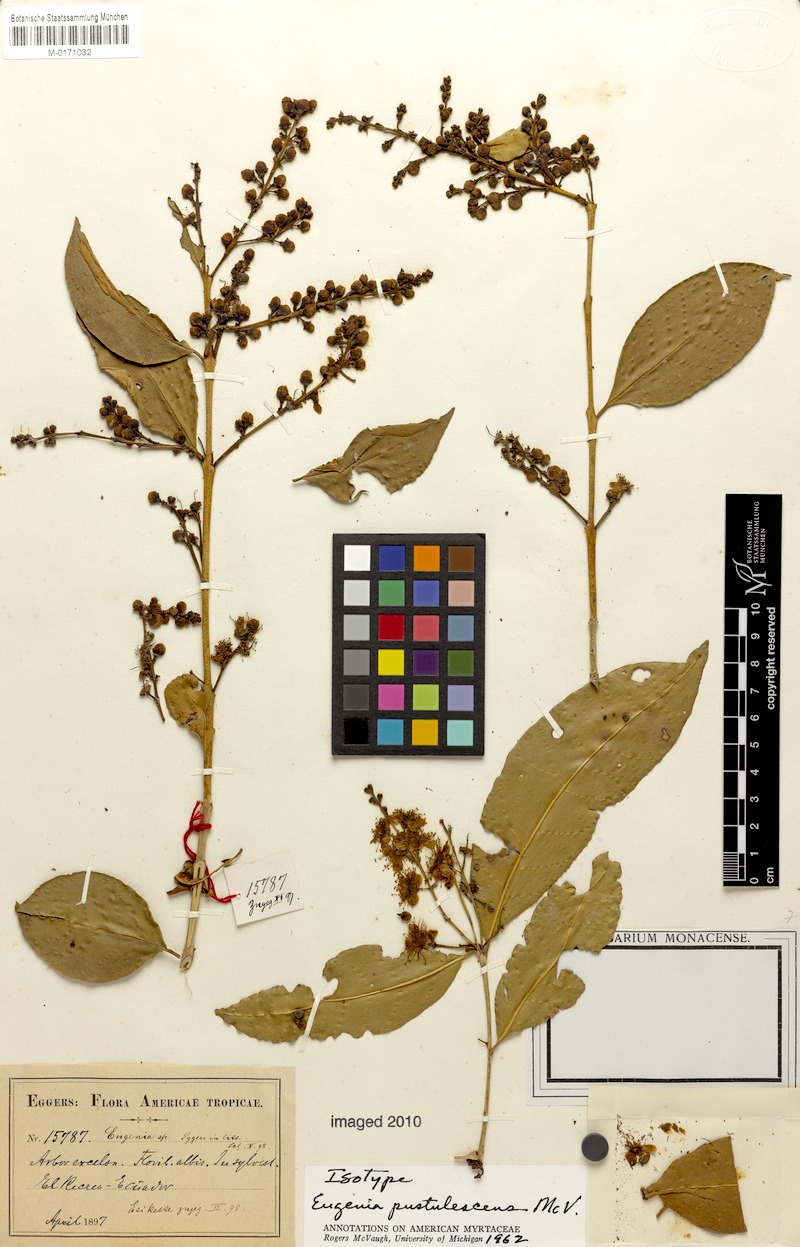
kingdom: Plantae
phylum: Tracheophyta
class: Magnoliopsida
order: Myrtales
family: Myrtaceae
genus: Eugenia
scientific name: Eugenia pustulescens
